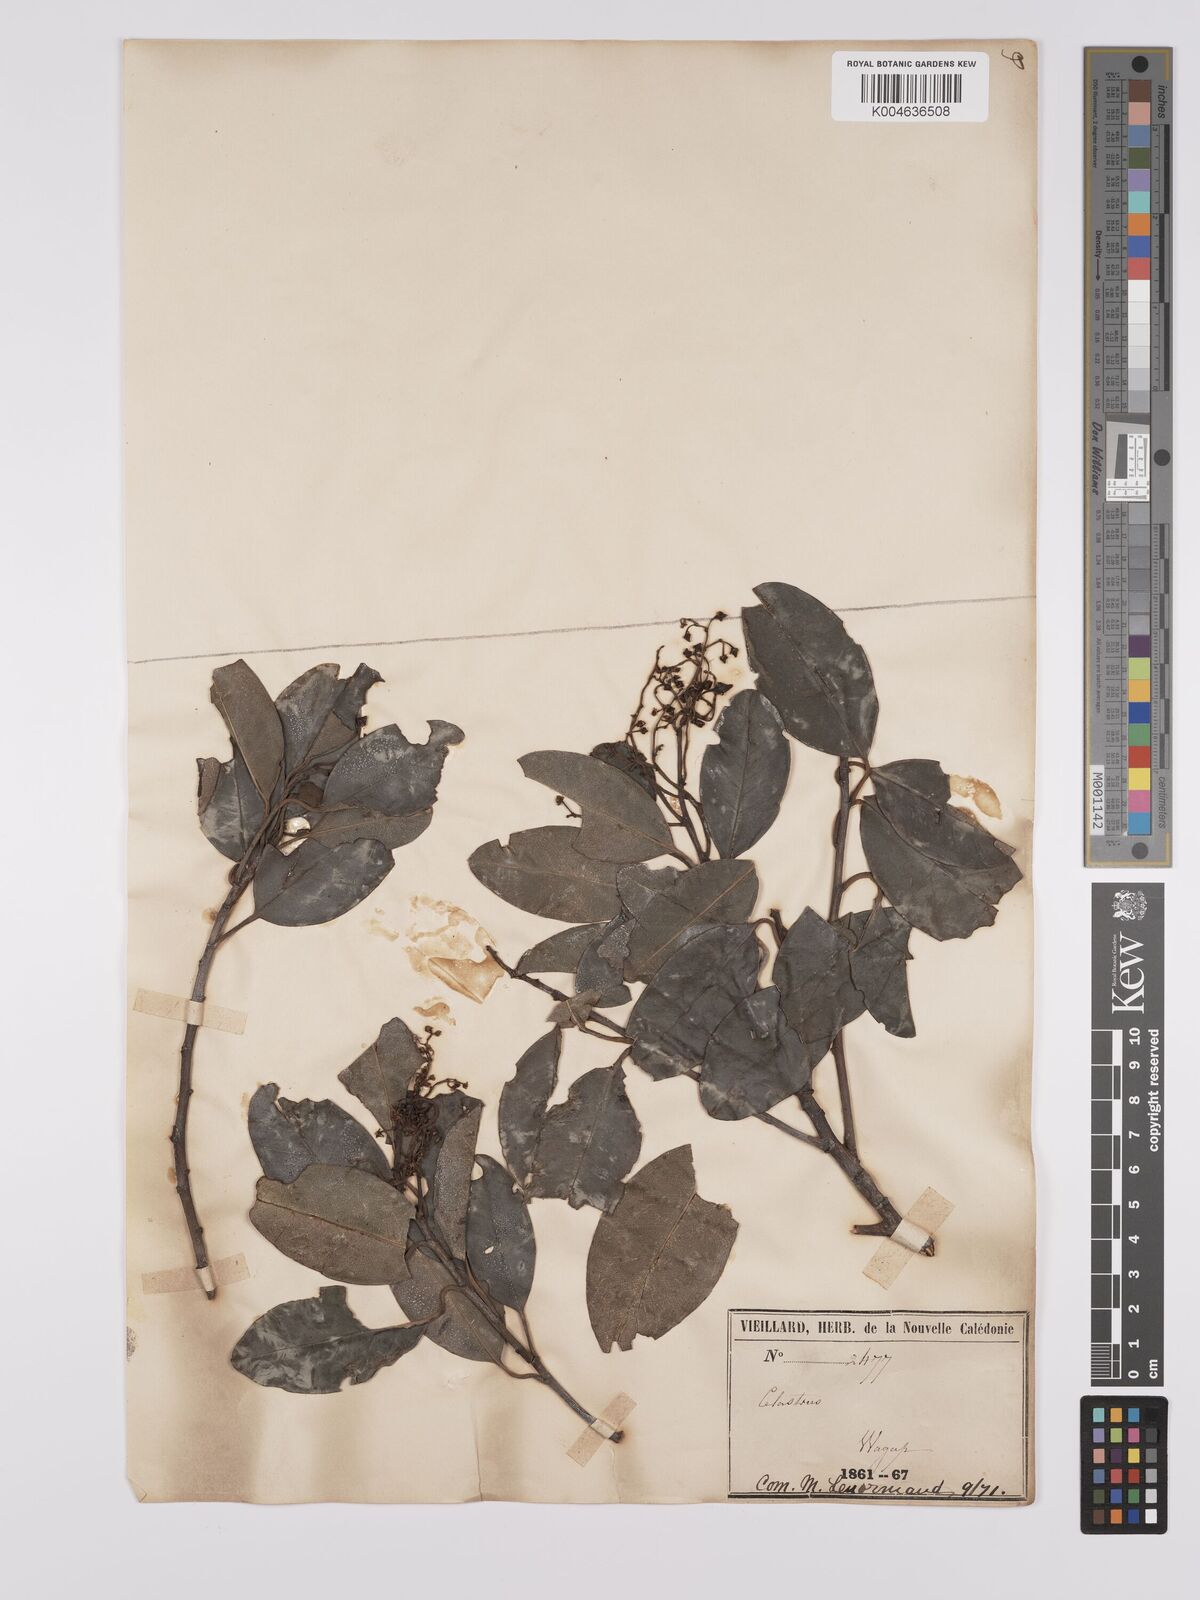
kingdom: Plantae
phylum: Tracheophyta
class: Magnoliopsida
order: Celastrales
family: Celastraceae
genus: Celastrus
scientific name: Celastrus
